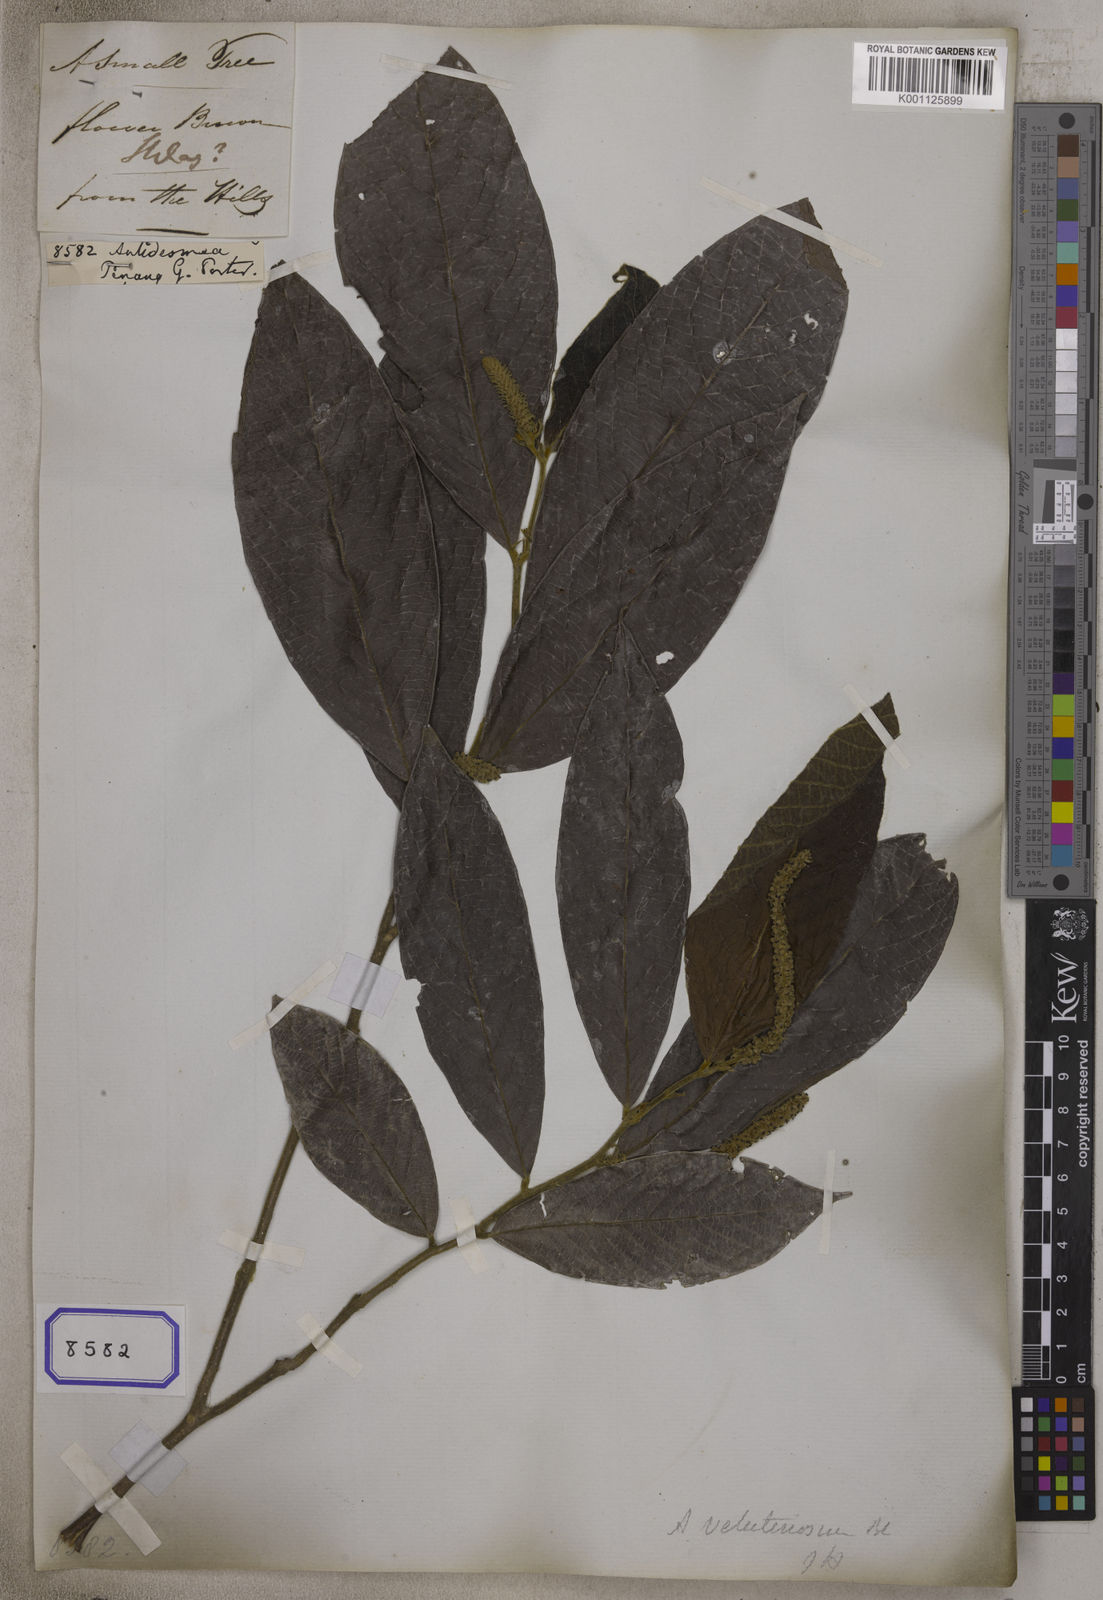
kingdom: Plantae
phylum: Tracheophyta
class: Magnoliopsida
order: Malpighiales
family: Phyllanthaceae
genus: Antidesma
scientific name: Antidesma
